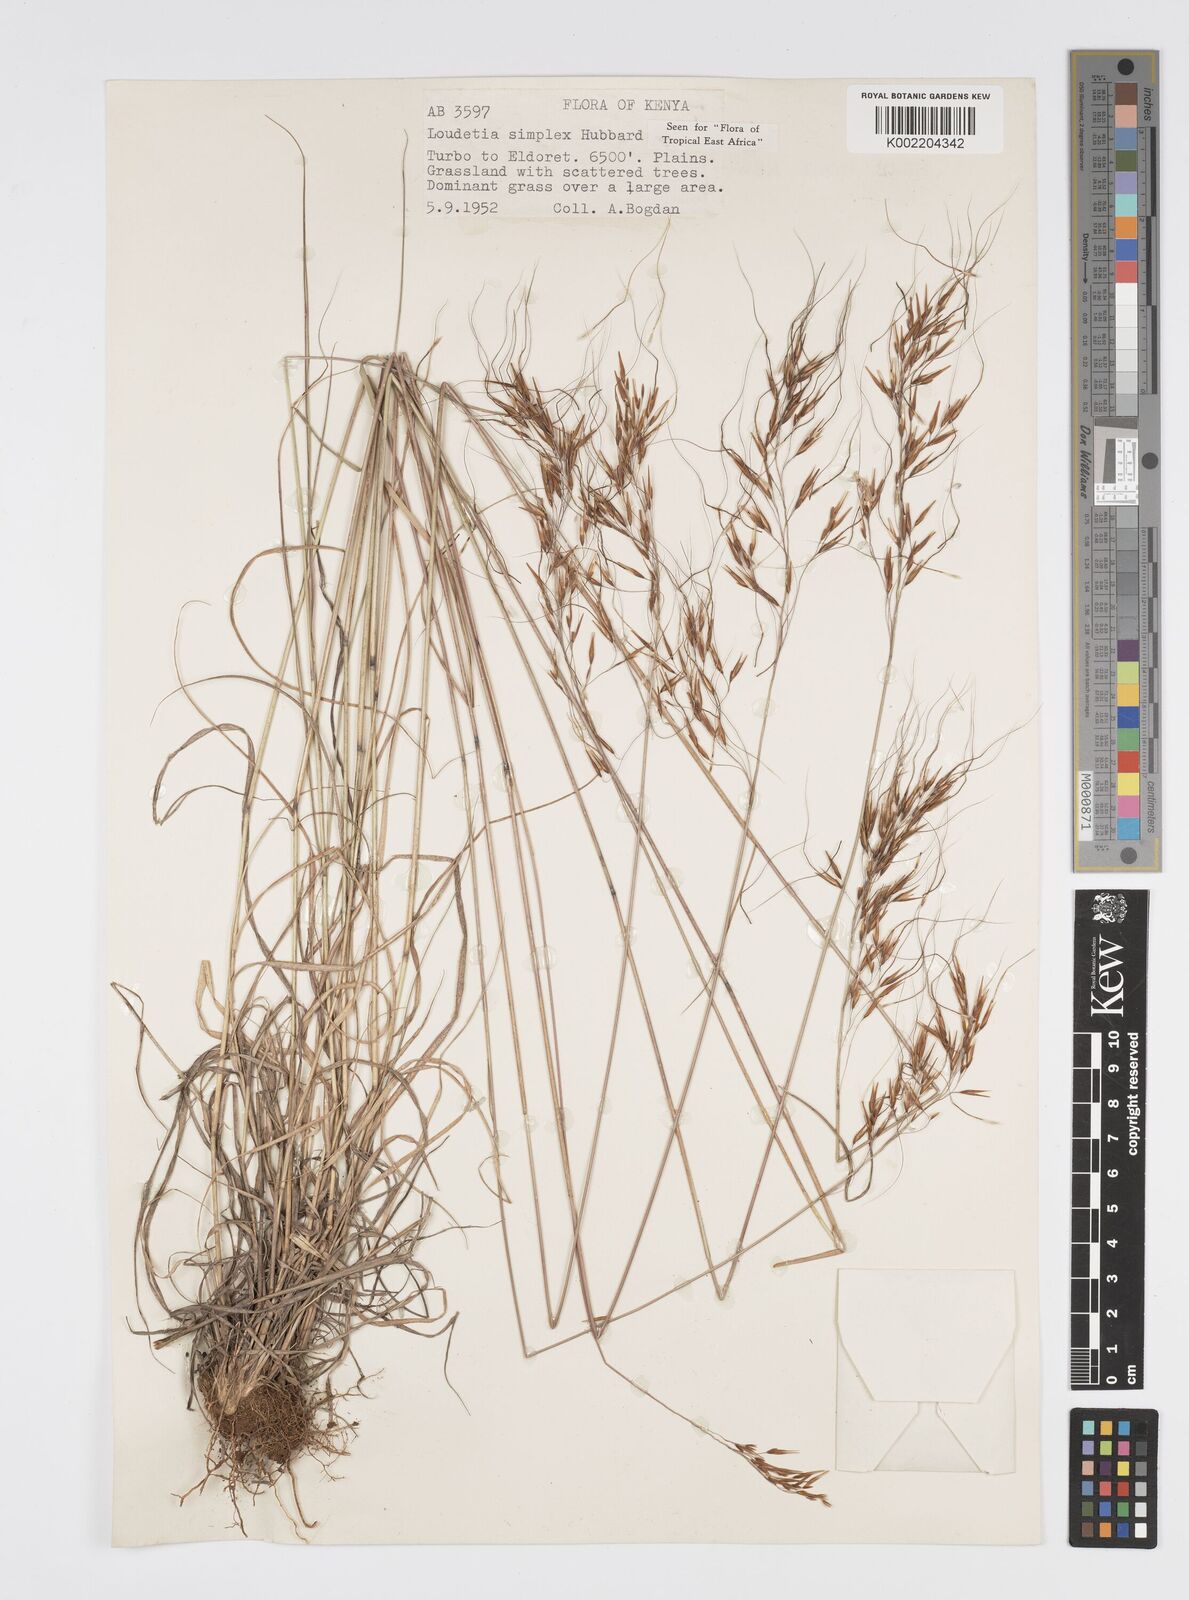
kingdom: Plantae
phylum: Tracheophyta
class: Liliopsida
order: Poales
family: Poaceae
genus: Loudetia
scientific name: Loudetia simplex
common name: Common russet grass
